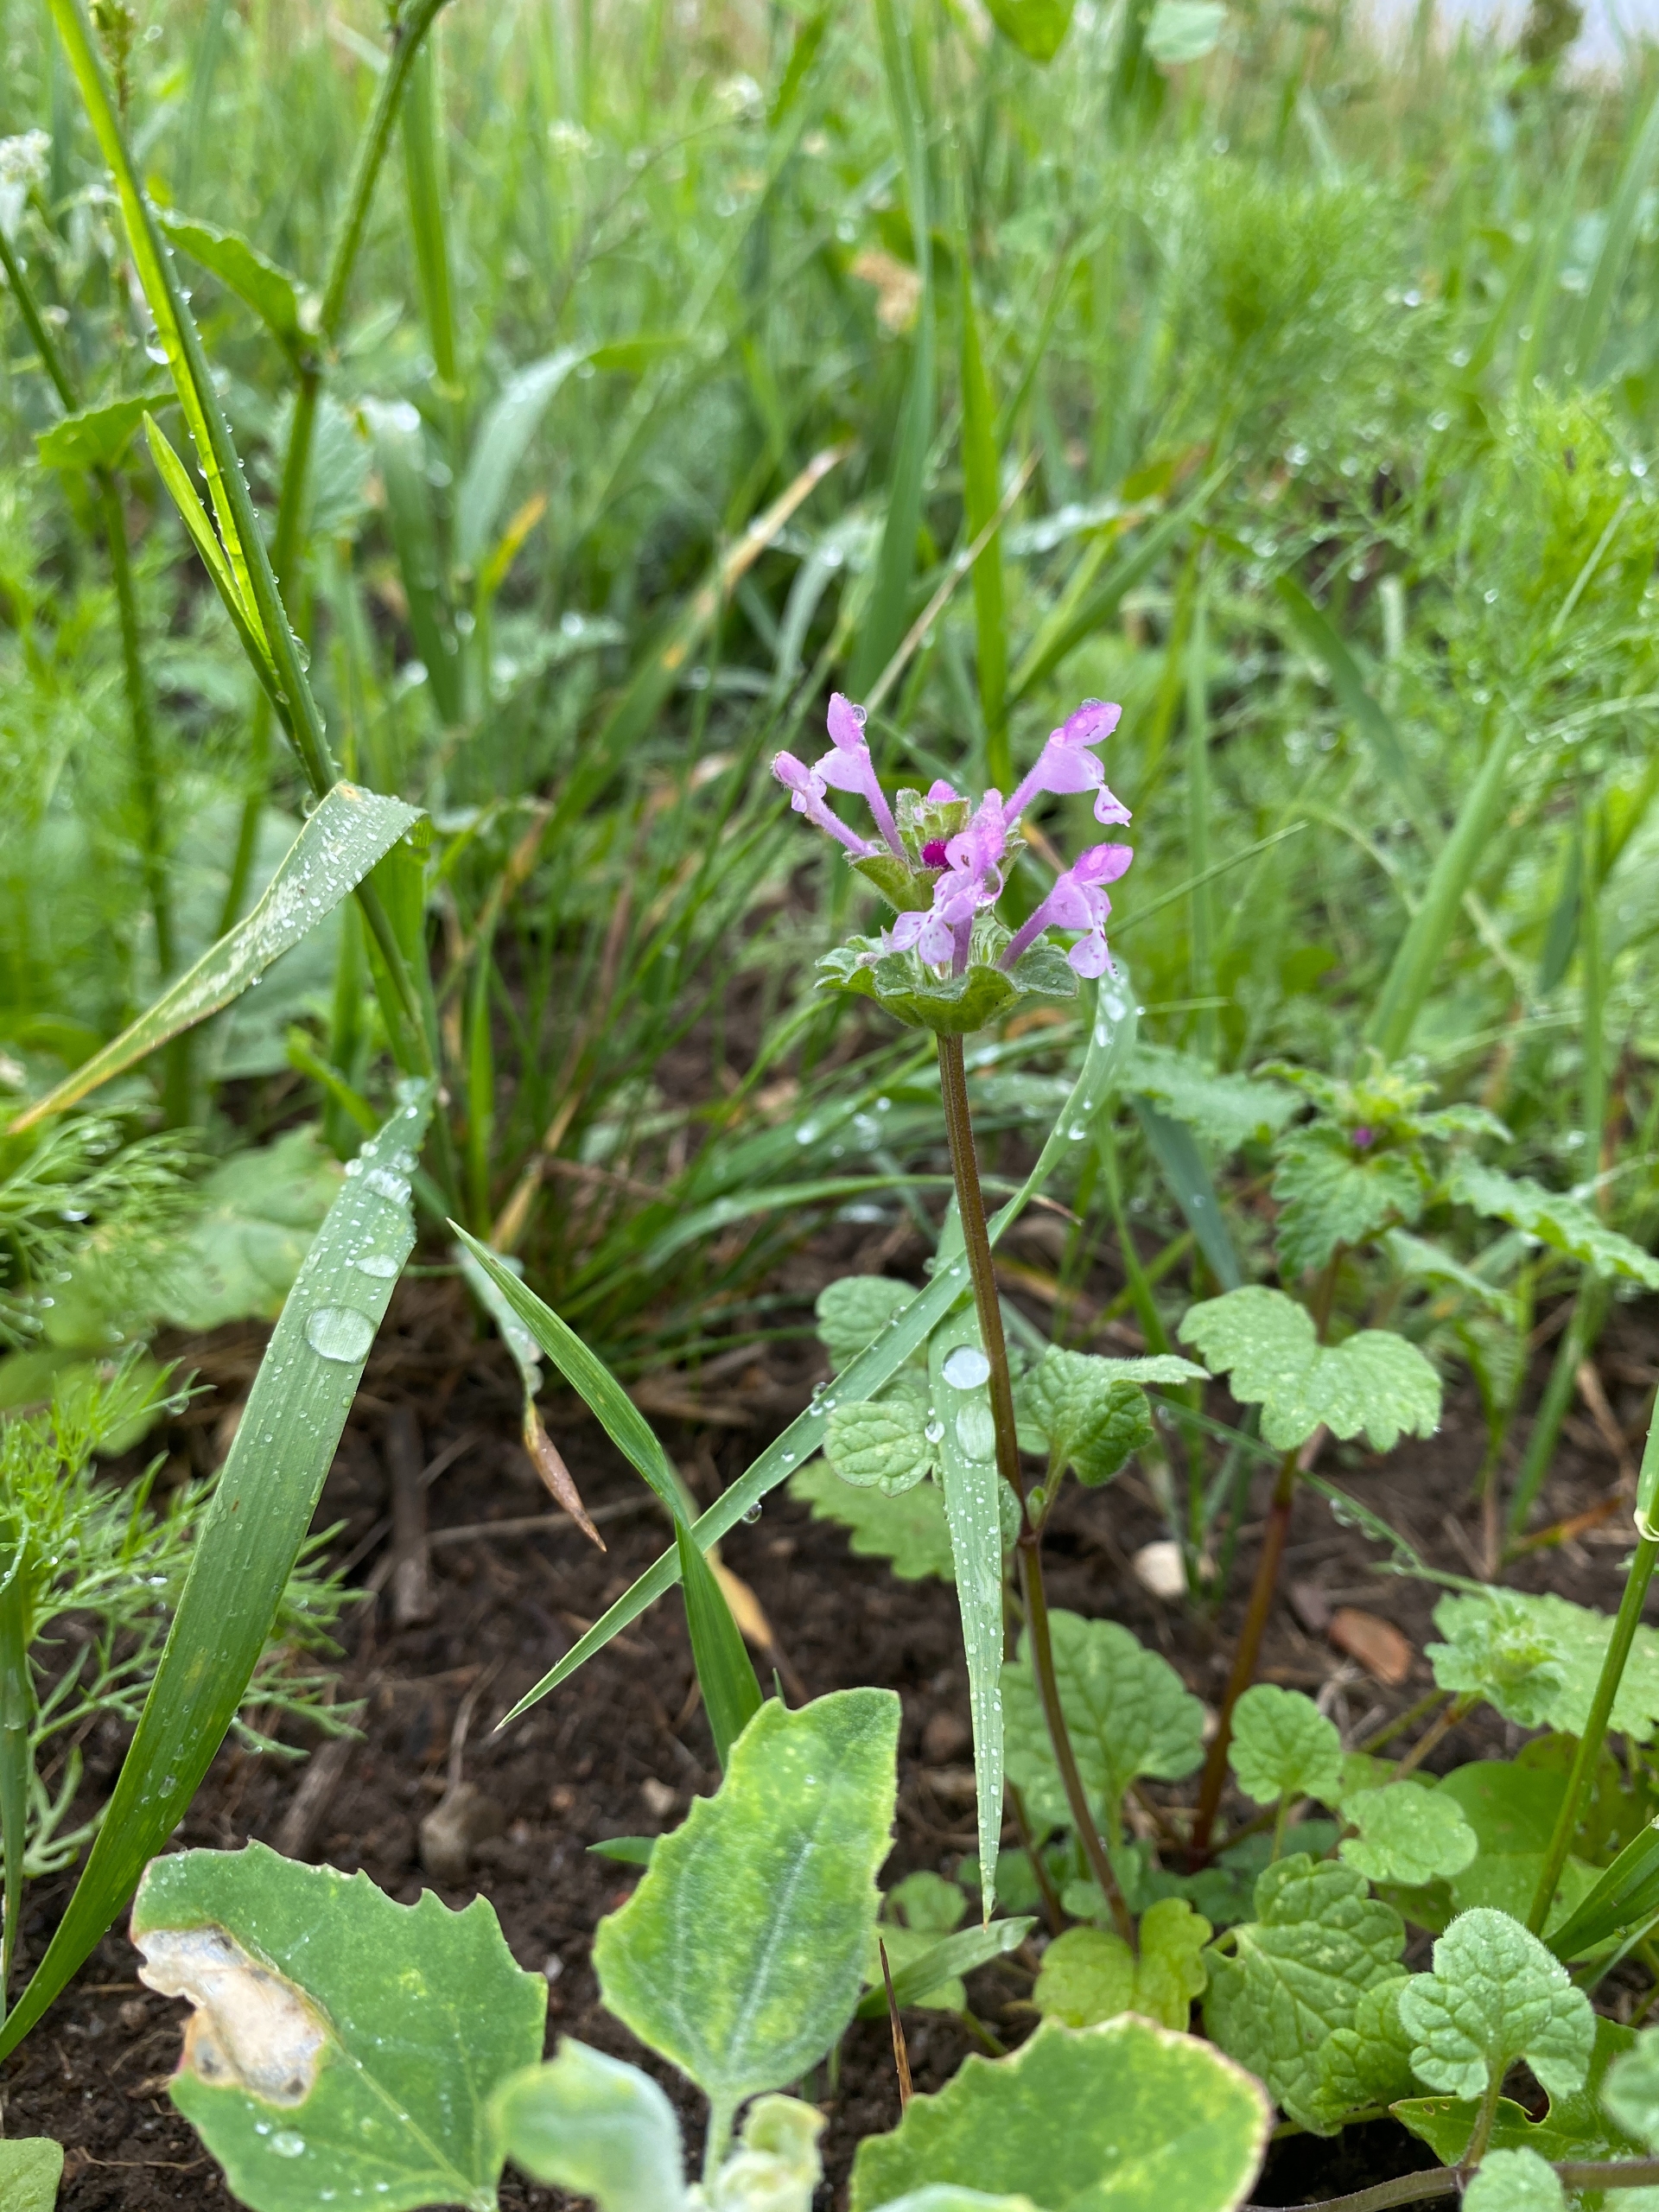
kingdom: Plantae
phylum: Tracheophyta
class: Magnoliopsida
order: Lamiales
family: Lamiaceae
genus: Lamium
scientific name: Lamium amplexicaule
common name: Liden tvetand
